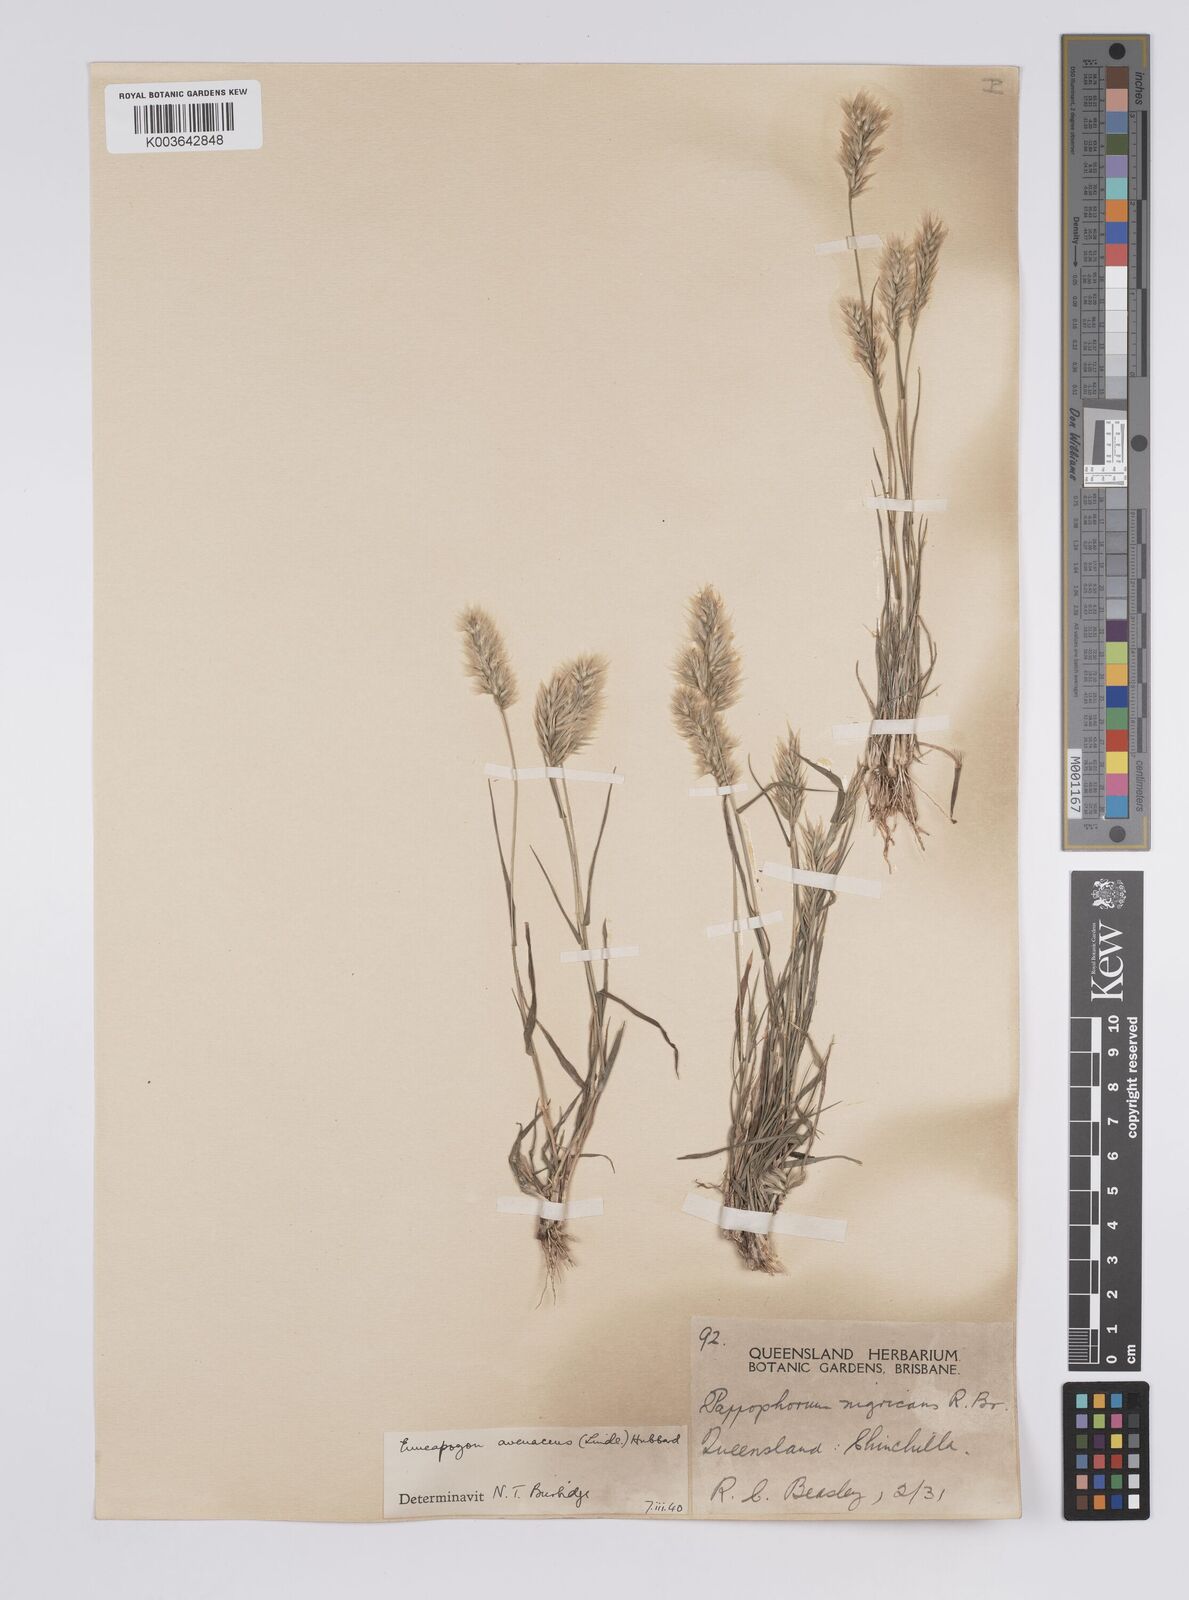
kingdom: Plantae
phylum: Tracheophyta
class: Liliopsida
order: Poales
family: Poaceae
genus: Enneapogon
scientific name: Enneapogon avenaceus
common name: Hairy oat grass
